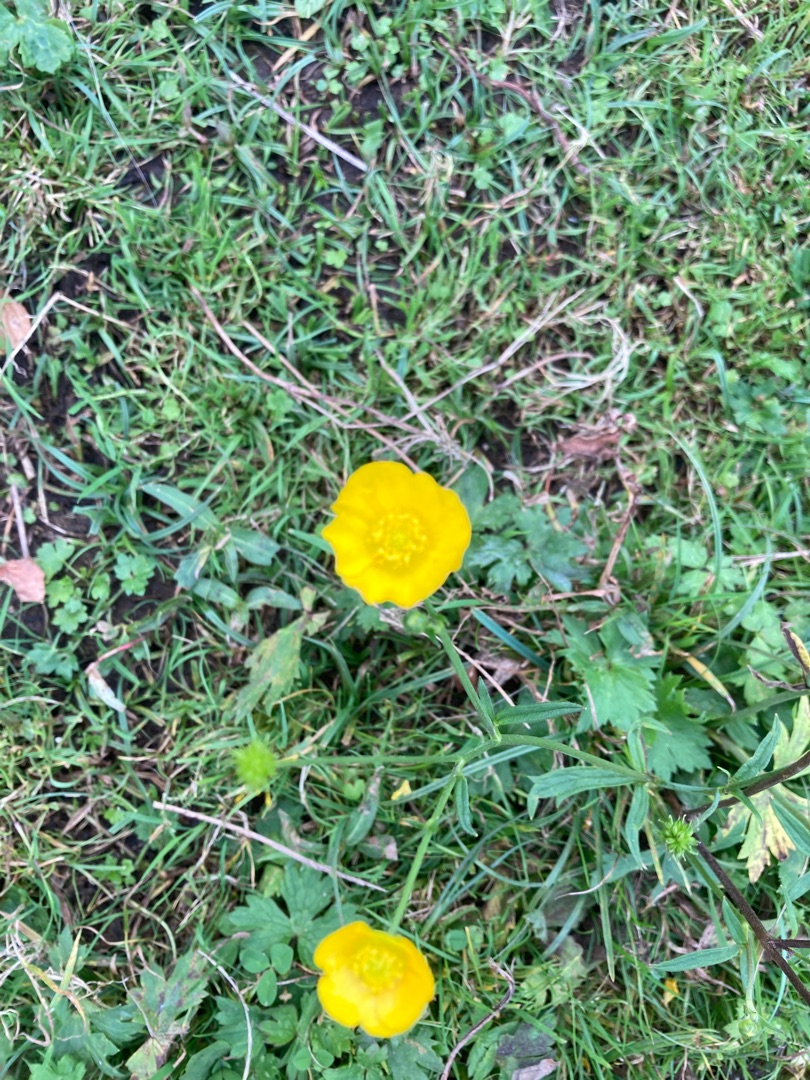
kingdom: Plantae
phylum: Tracheophyta
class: Magnoliopsida
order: Ranunculales
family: Ranunculaceae
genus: Ranunculus
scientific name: Ranunculus acris
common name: Bidende ranunkel
